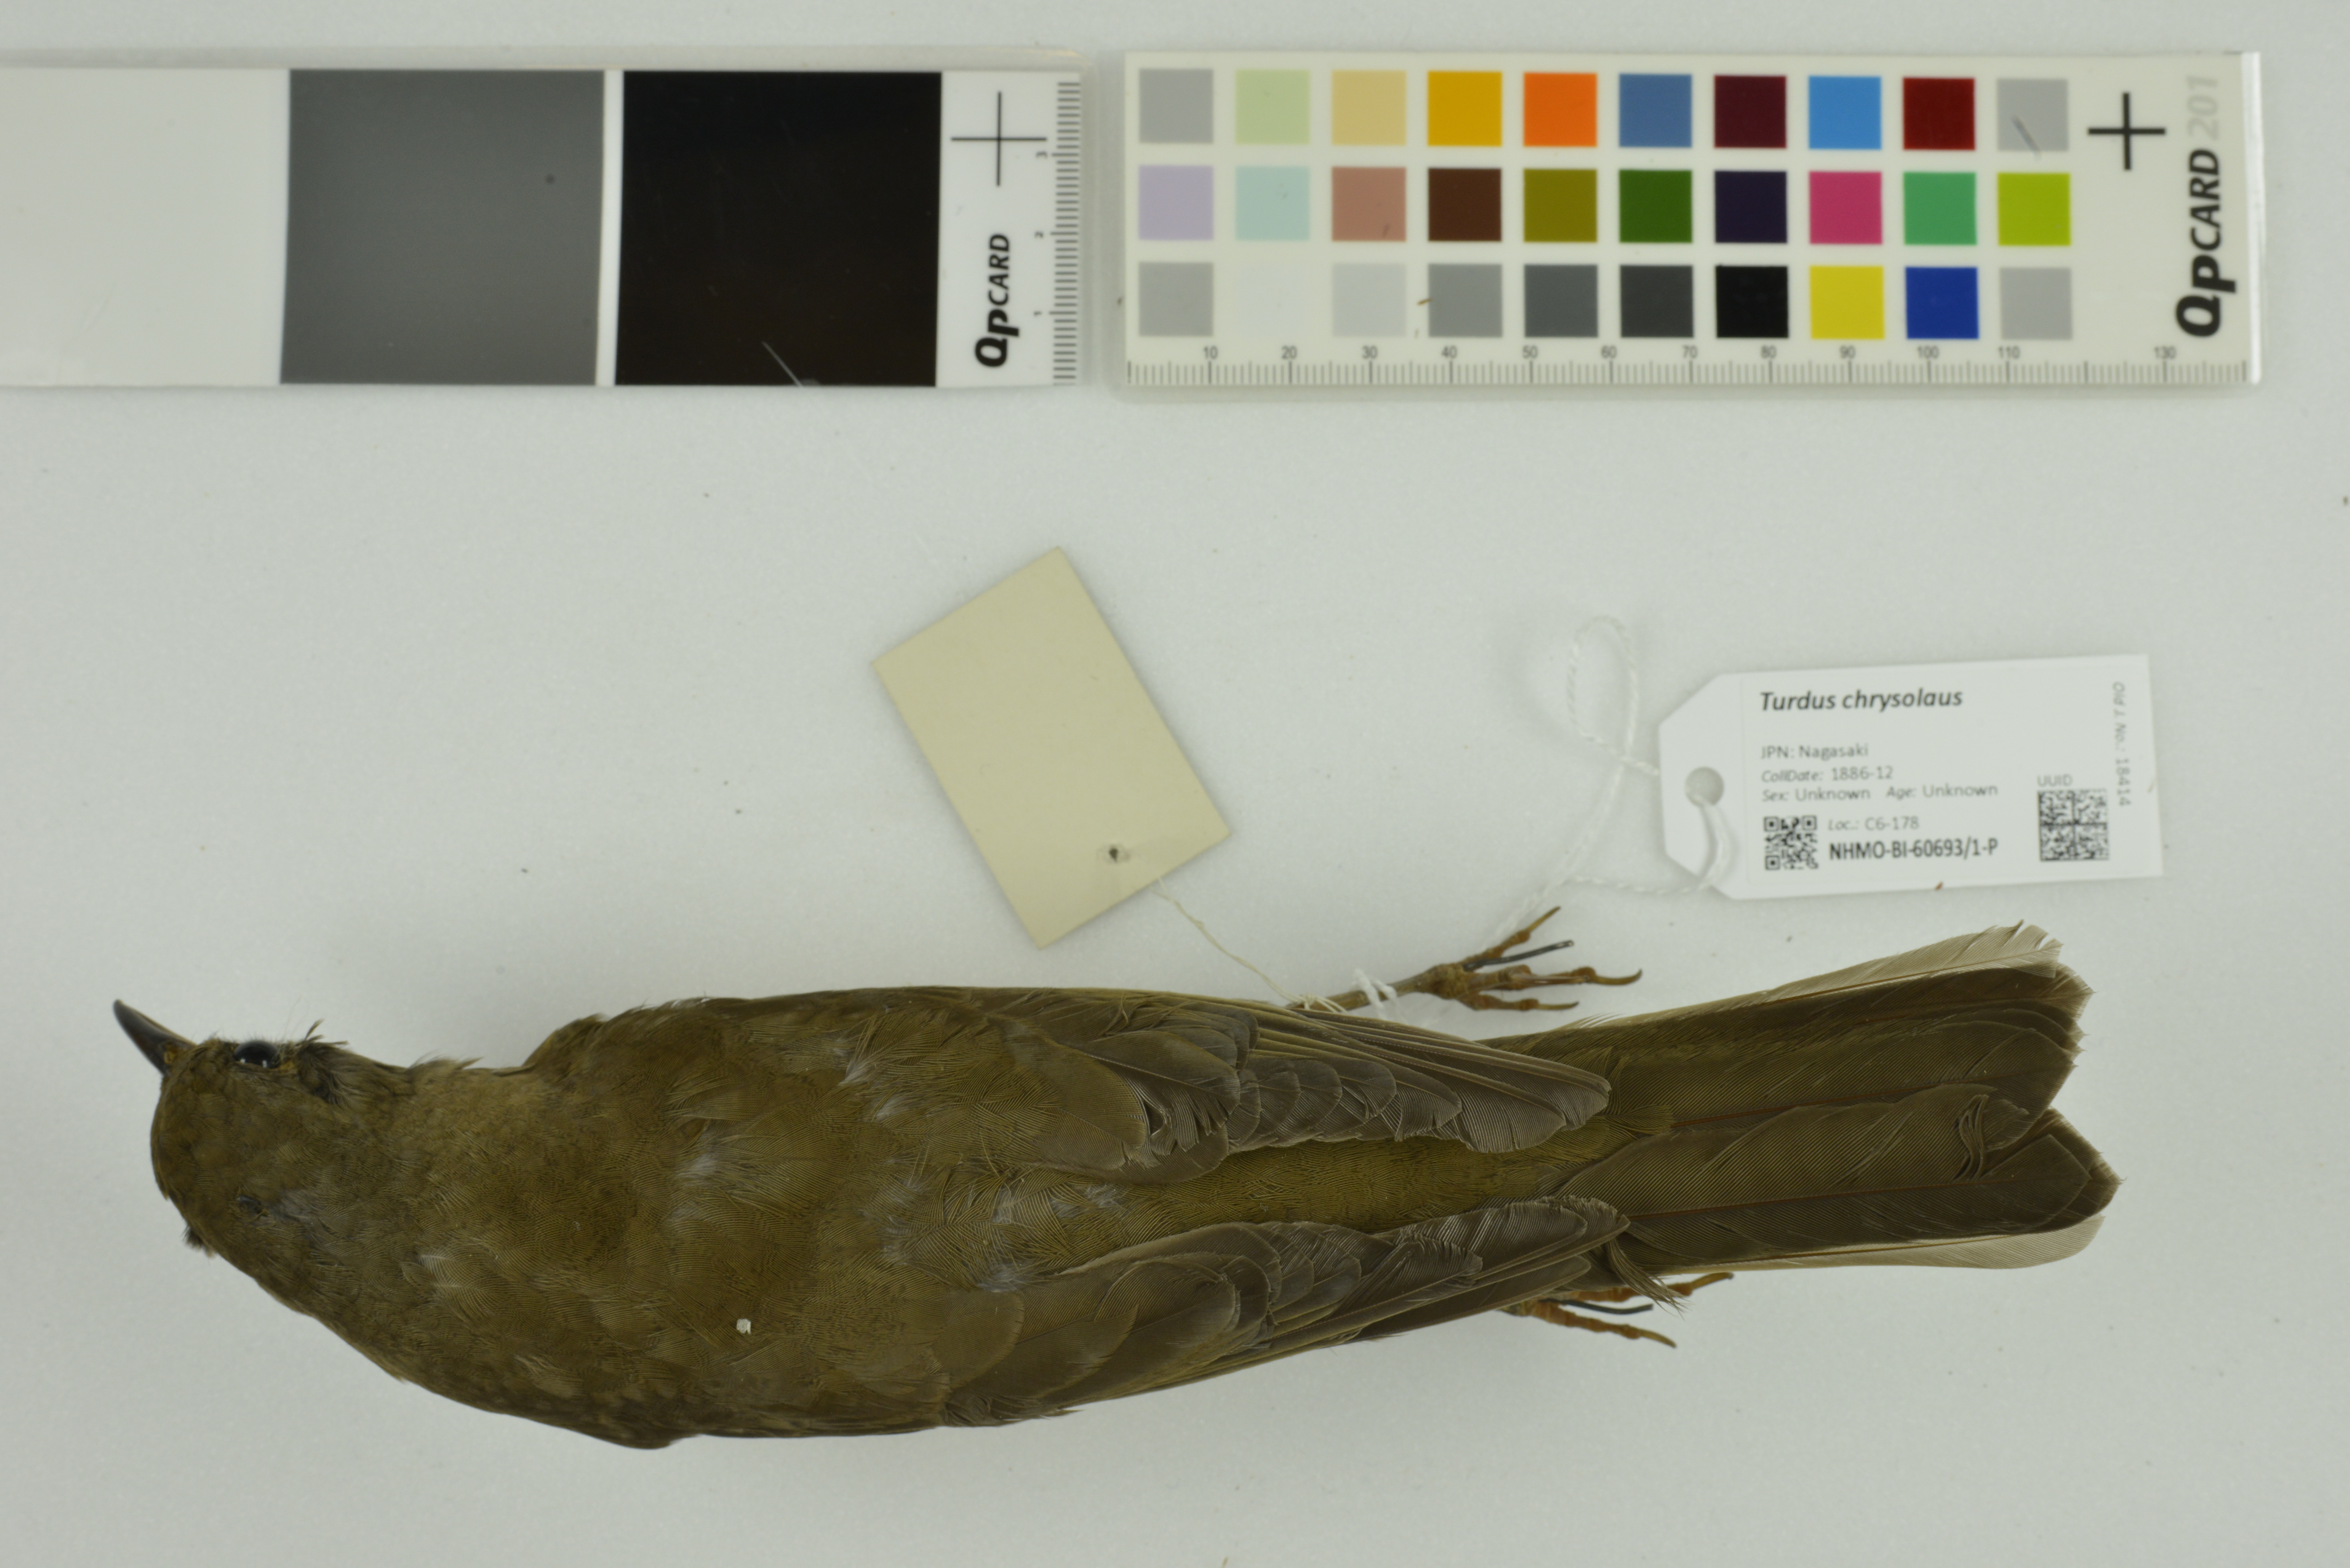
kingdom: Animalia
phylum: Chordata
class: Aves
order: Passeriformes
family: Turdidae
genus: Turdus
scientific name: Turdus chrysolaus
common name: Brown-headed thrush
